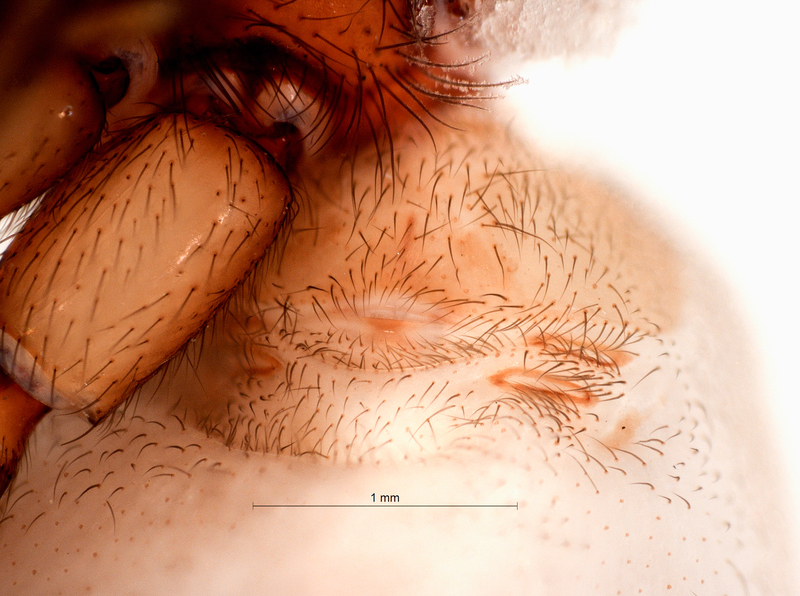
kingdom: Animalia
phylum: Arthropoda
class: Arachnida
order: Araneae
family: Dysderidae
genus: Harpactea
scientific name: Harpactea rubicunda
